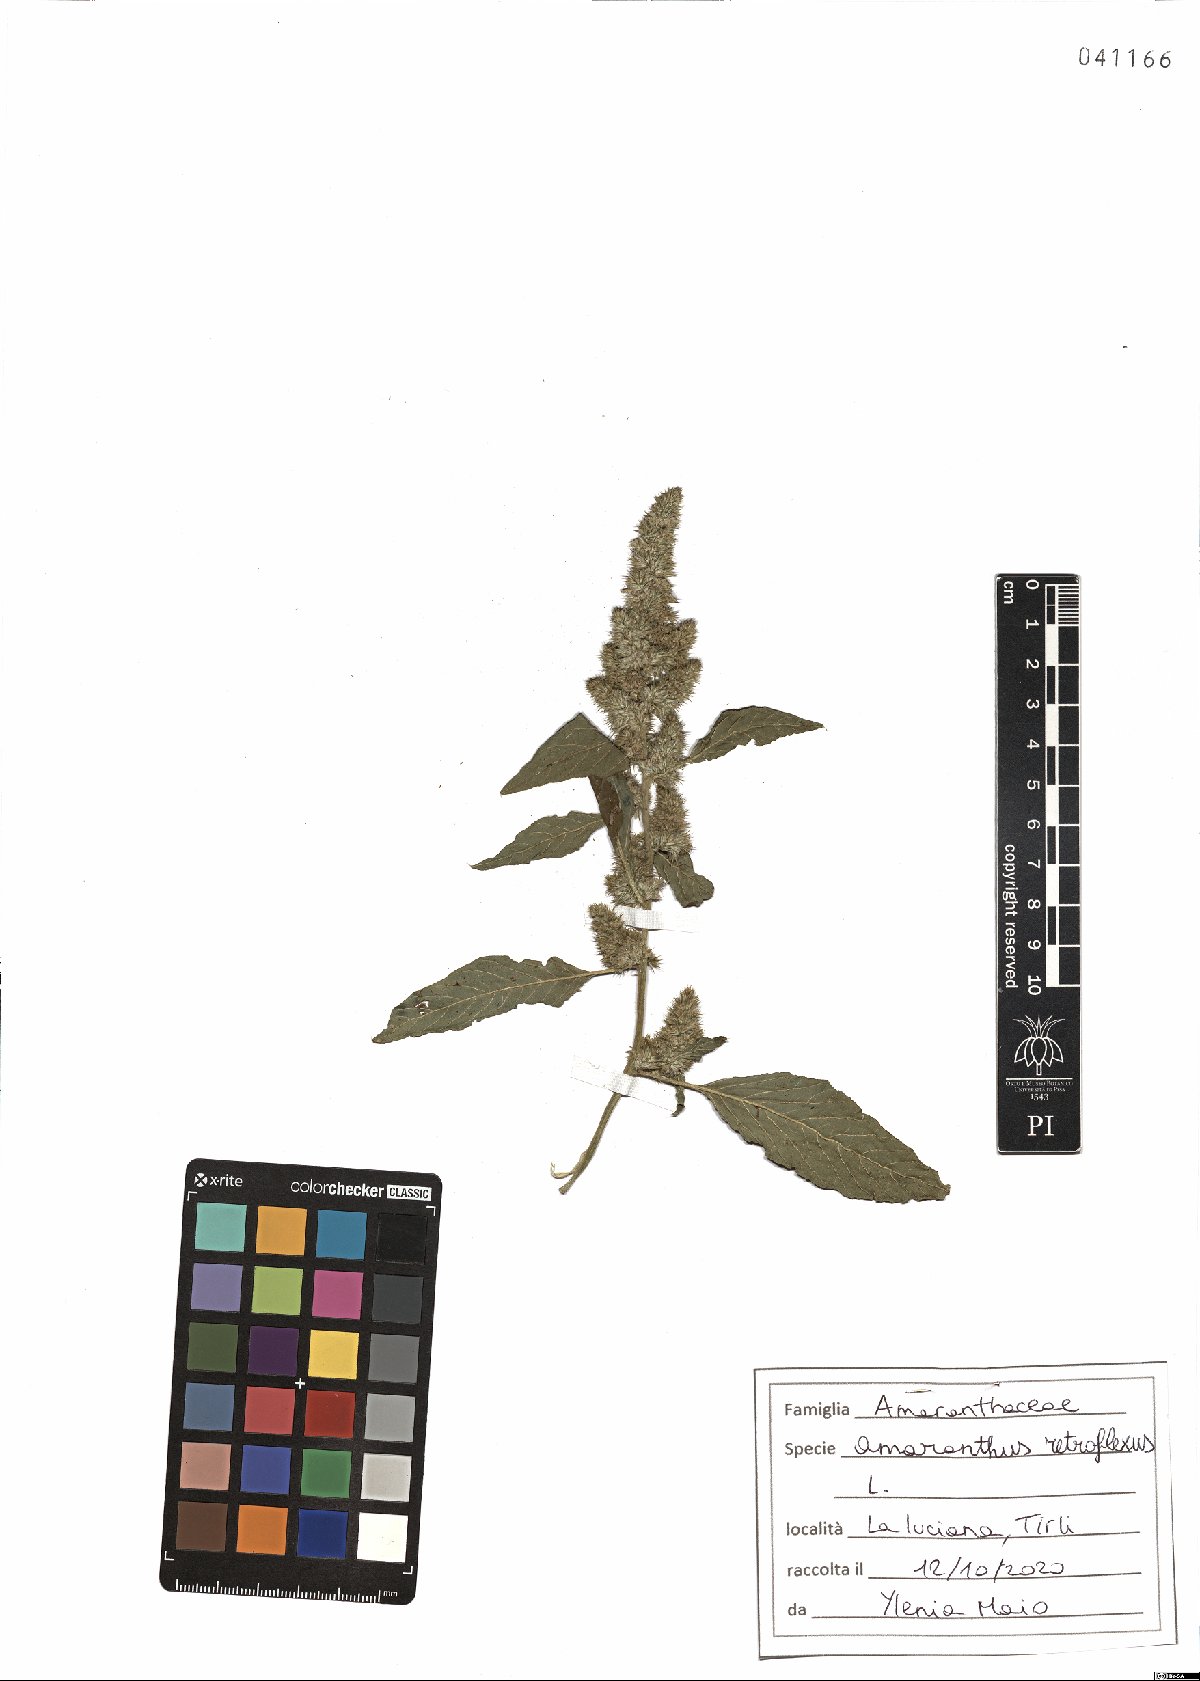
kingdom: Plantae
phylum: Tracheophyta
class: Magnoliopsida
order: Caryophyllales
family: Amaranthaceae
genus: Amaranthus
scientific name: Amaranthus retroflexus
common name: Redroot amaranth
